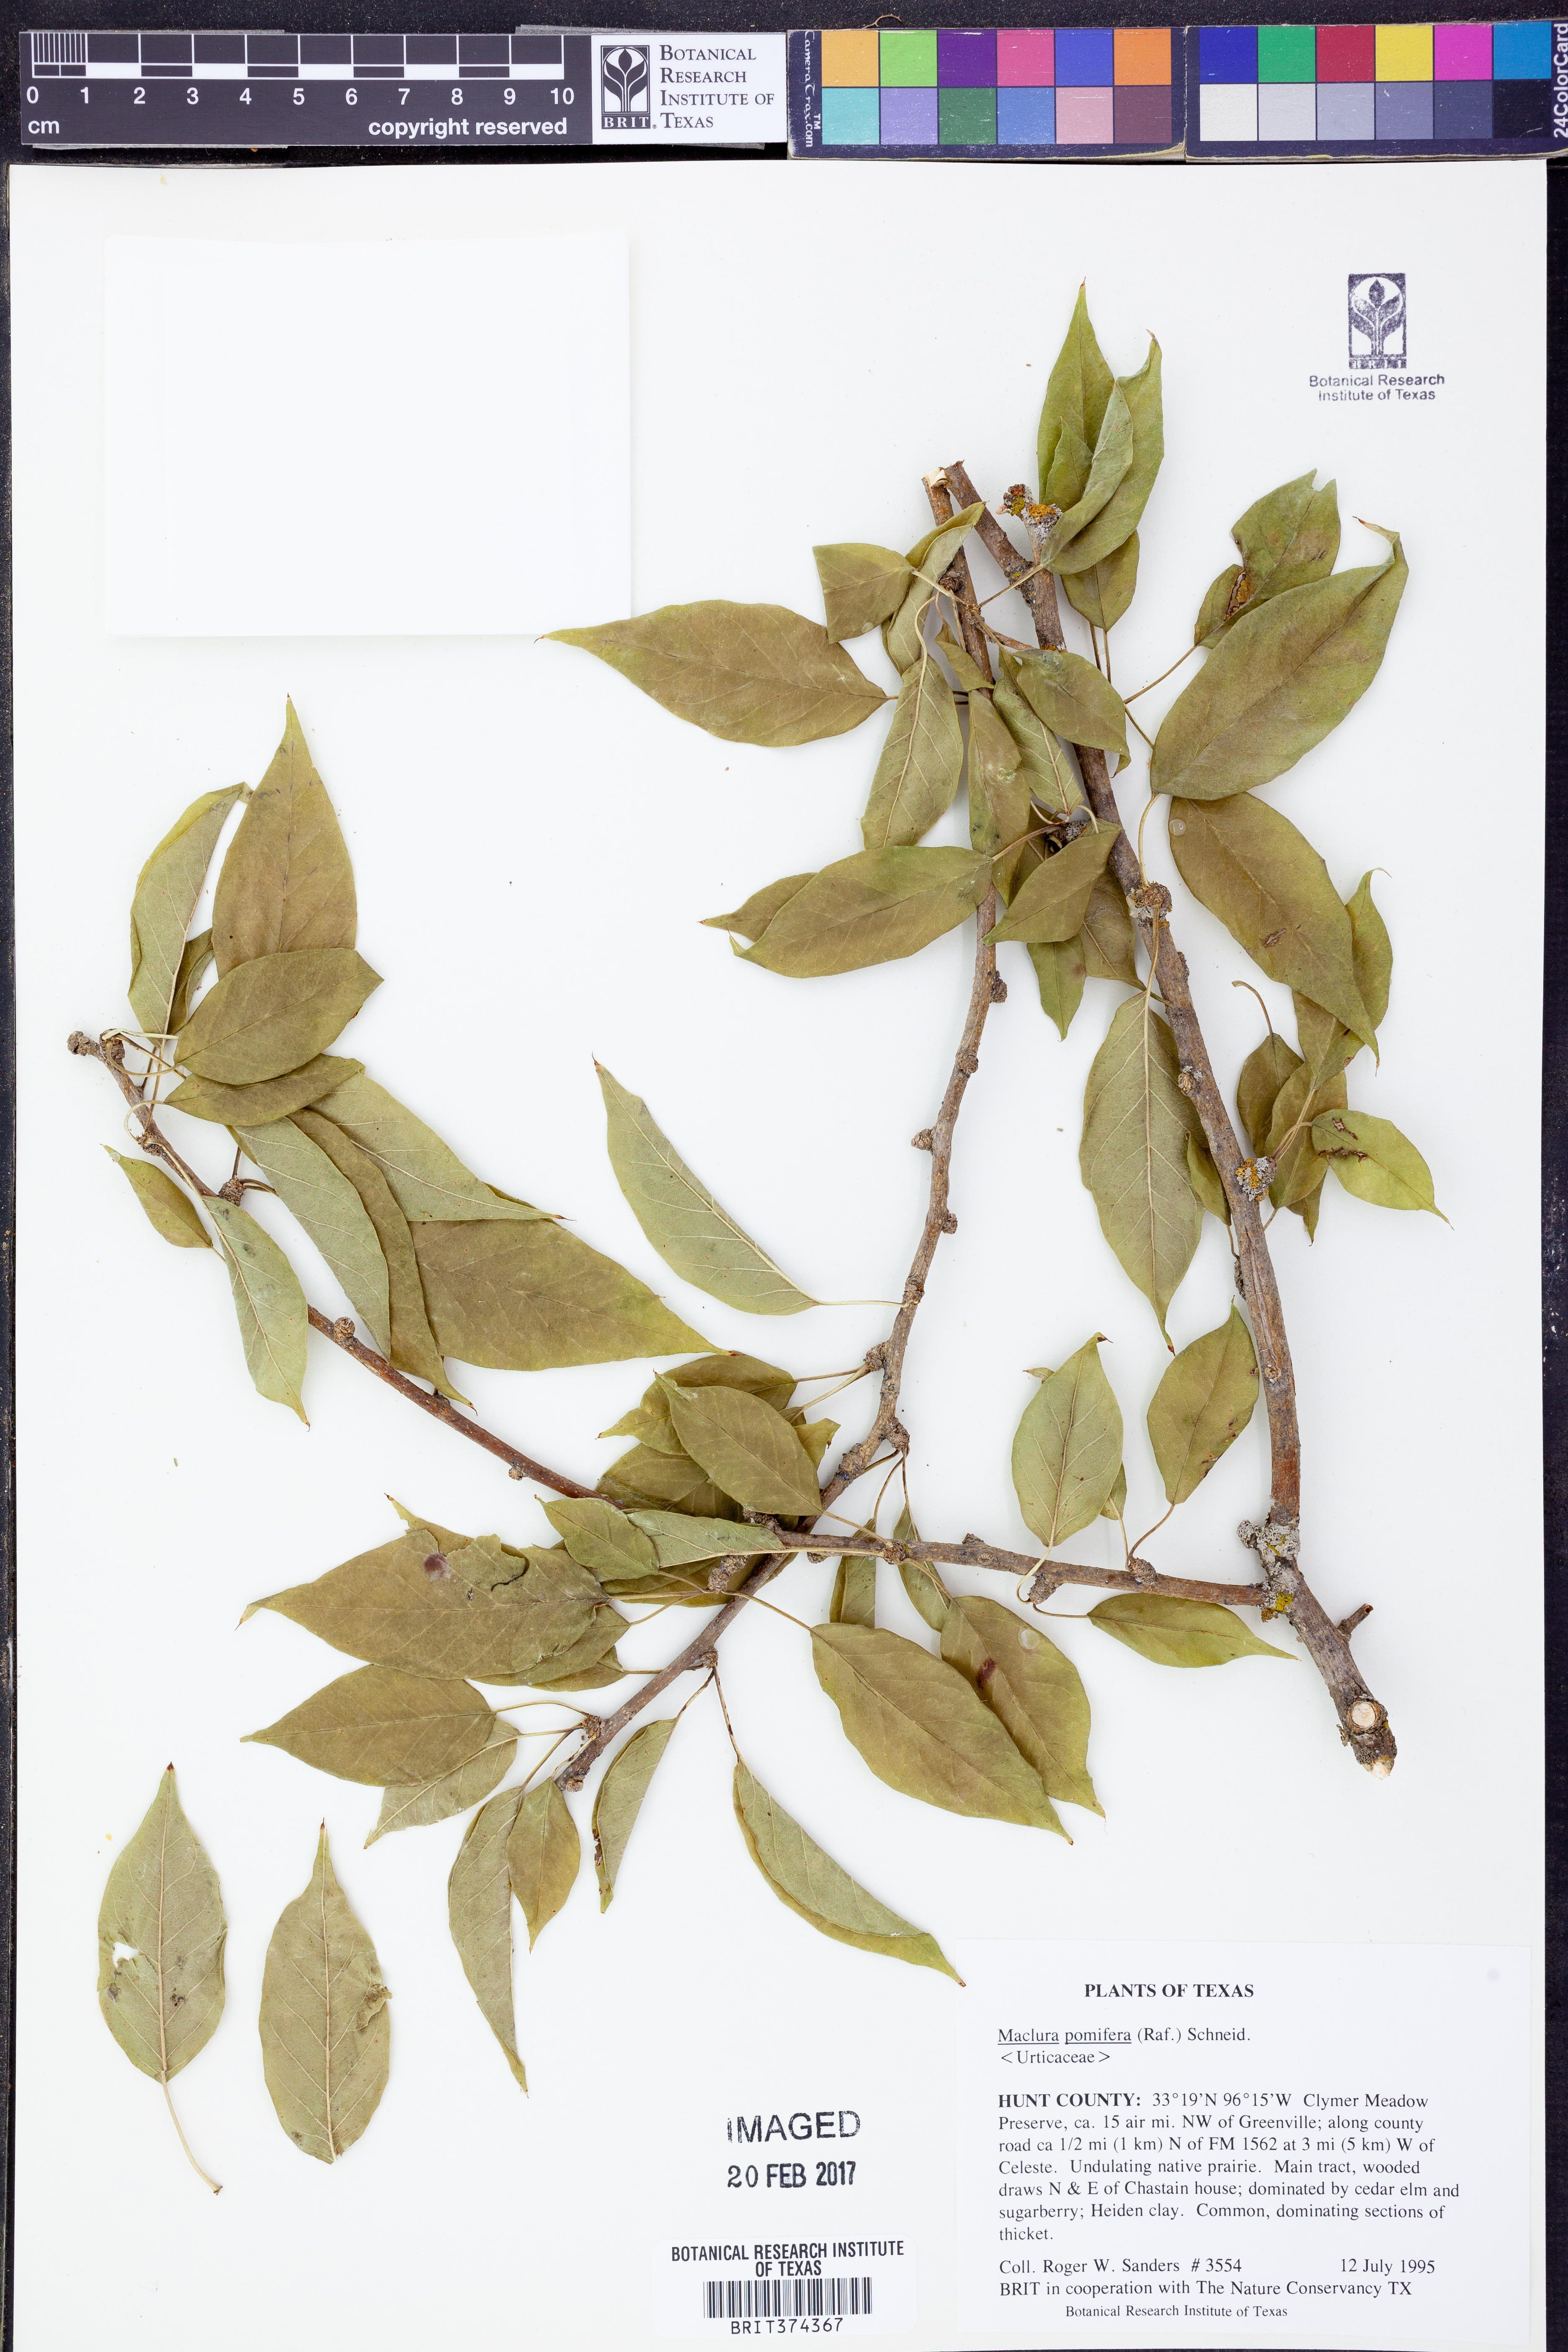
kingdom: Plantae
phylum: Tracheophyta
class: Magnoliopsida
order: Rosales
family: Moraceae
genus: Maclura
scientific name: Maclura pomifera
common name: Osage-orange
